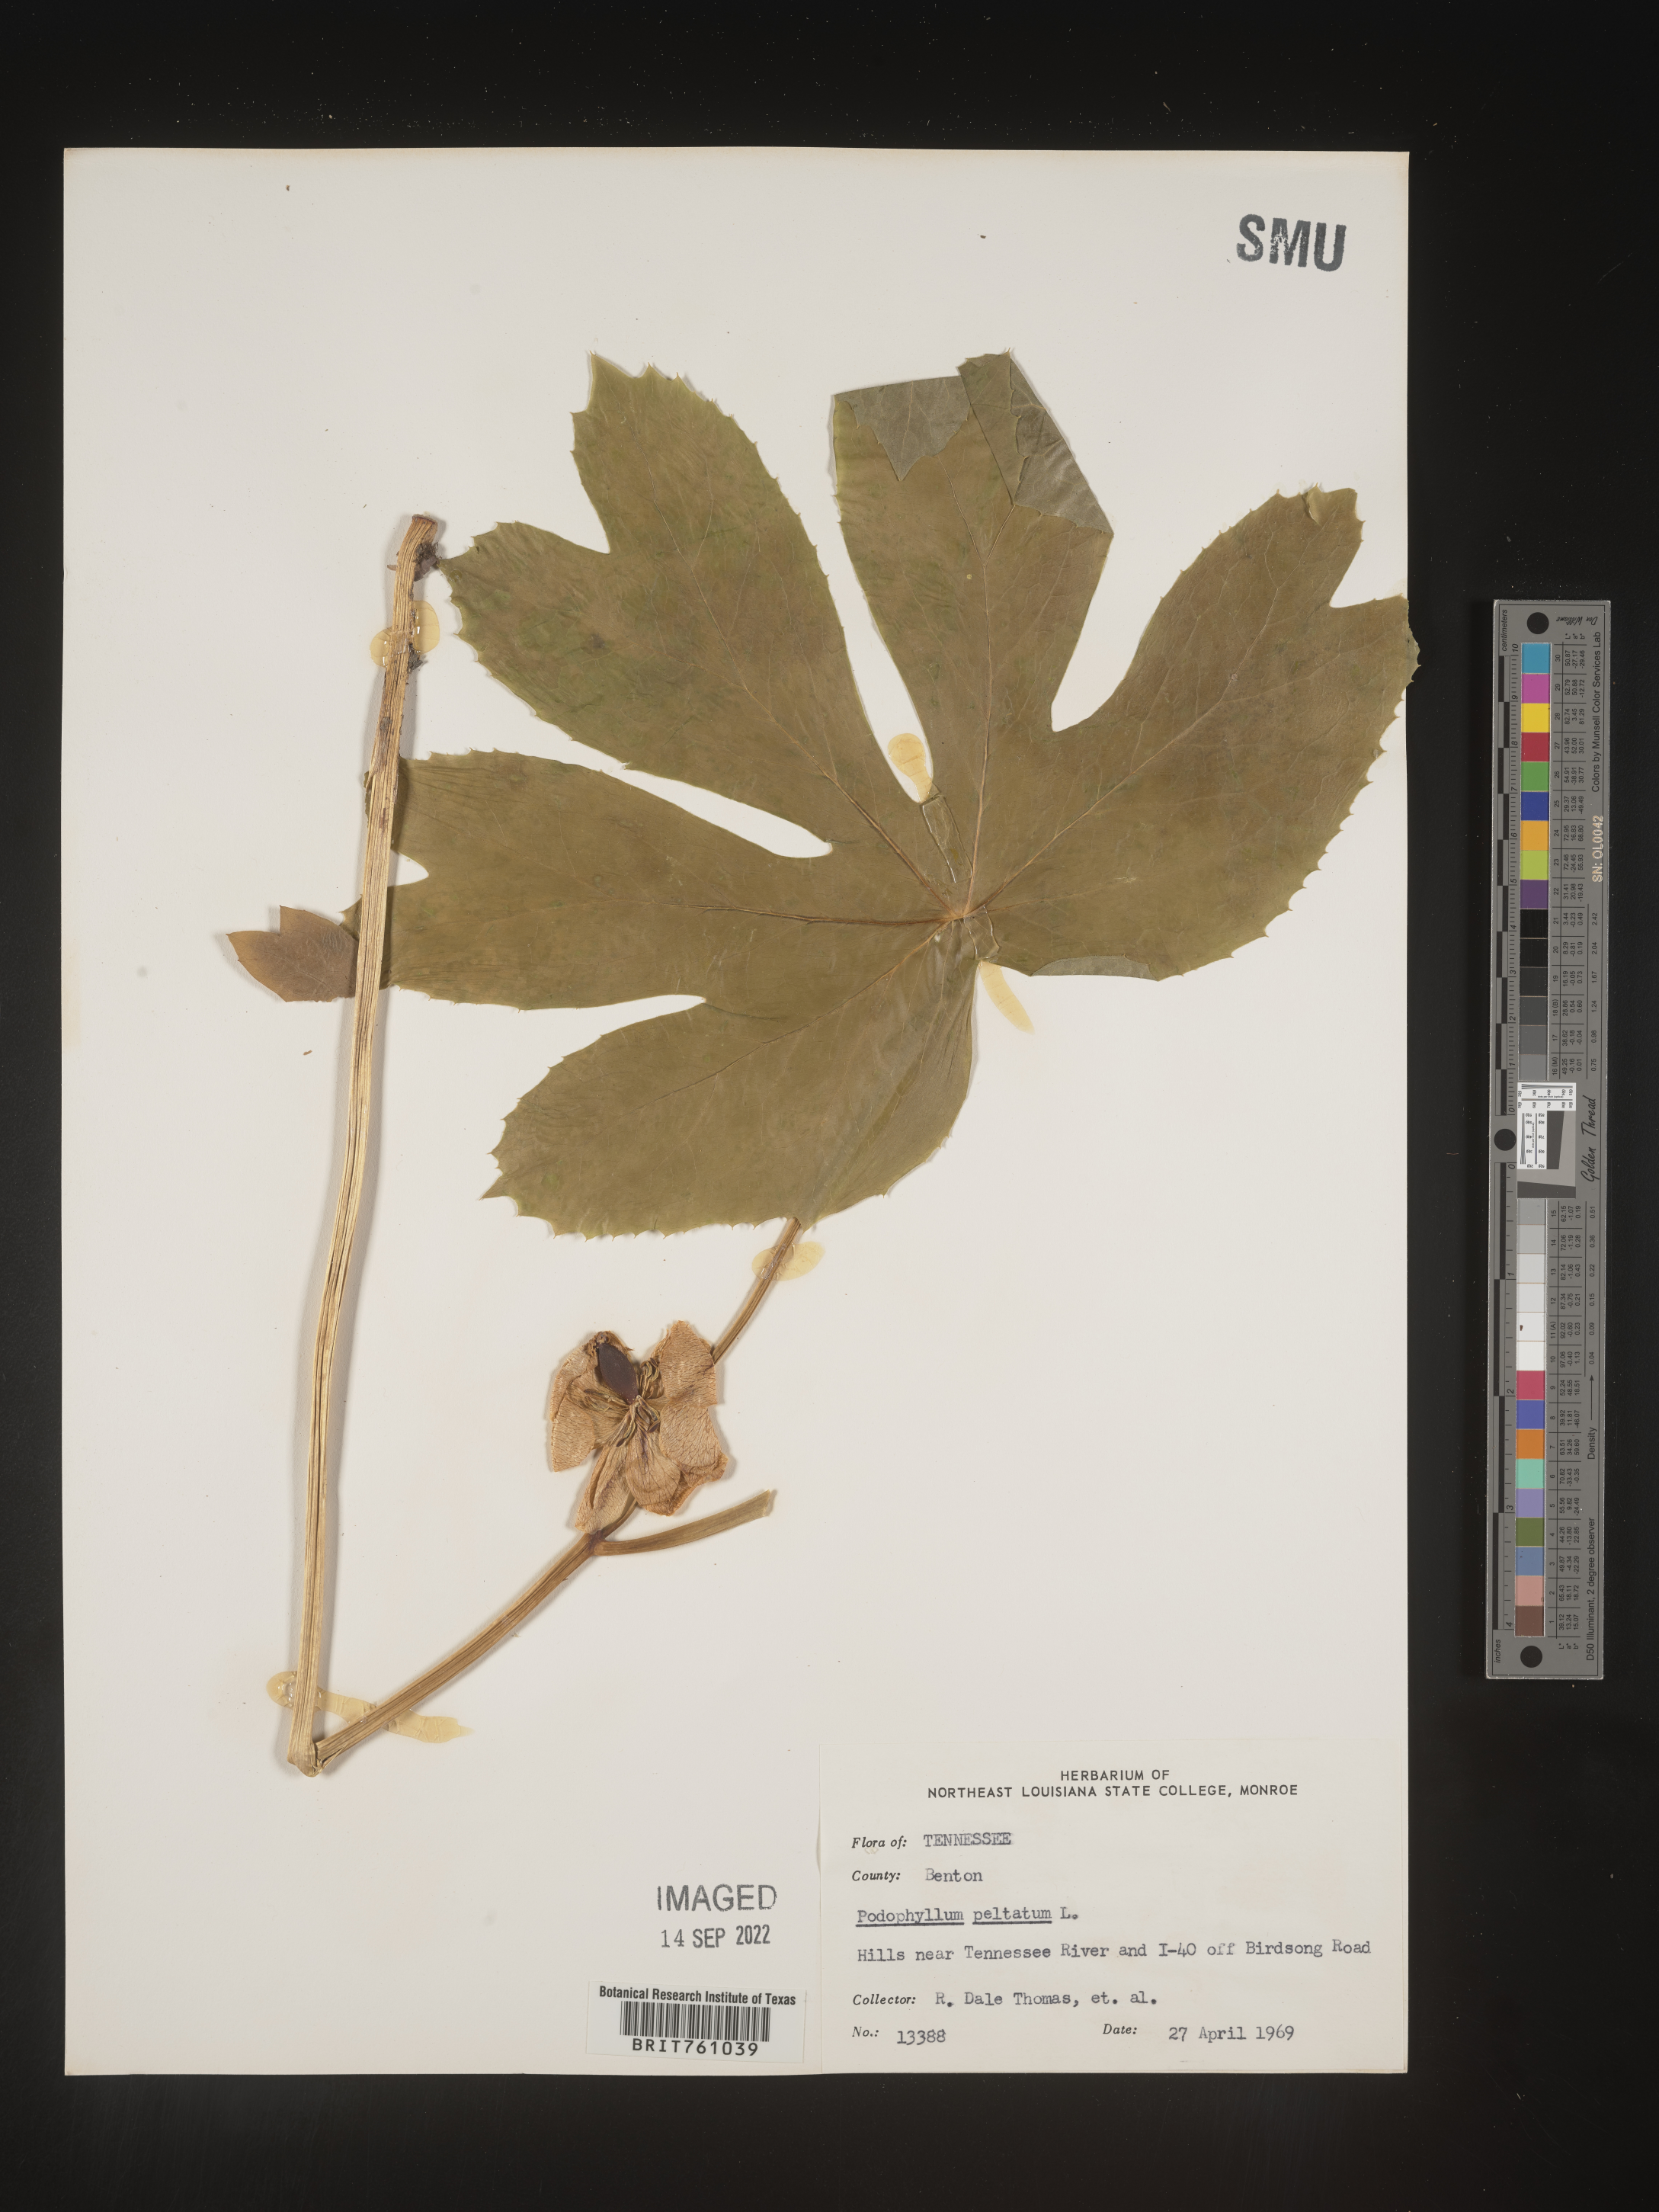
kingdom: Plantae
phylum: Tracheophyta
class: Magnoliopsida
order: Ranunculales
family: Berberidaceae
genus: Podophyllum
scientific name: Podophyllum peltatum
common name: Wild mandrake
